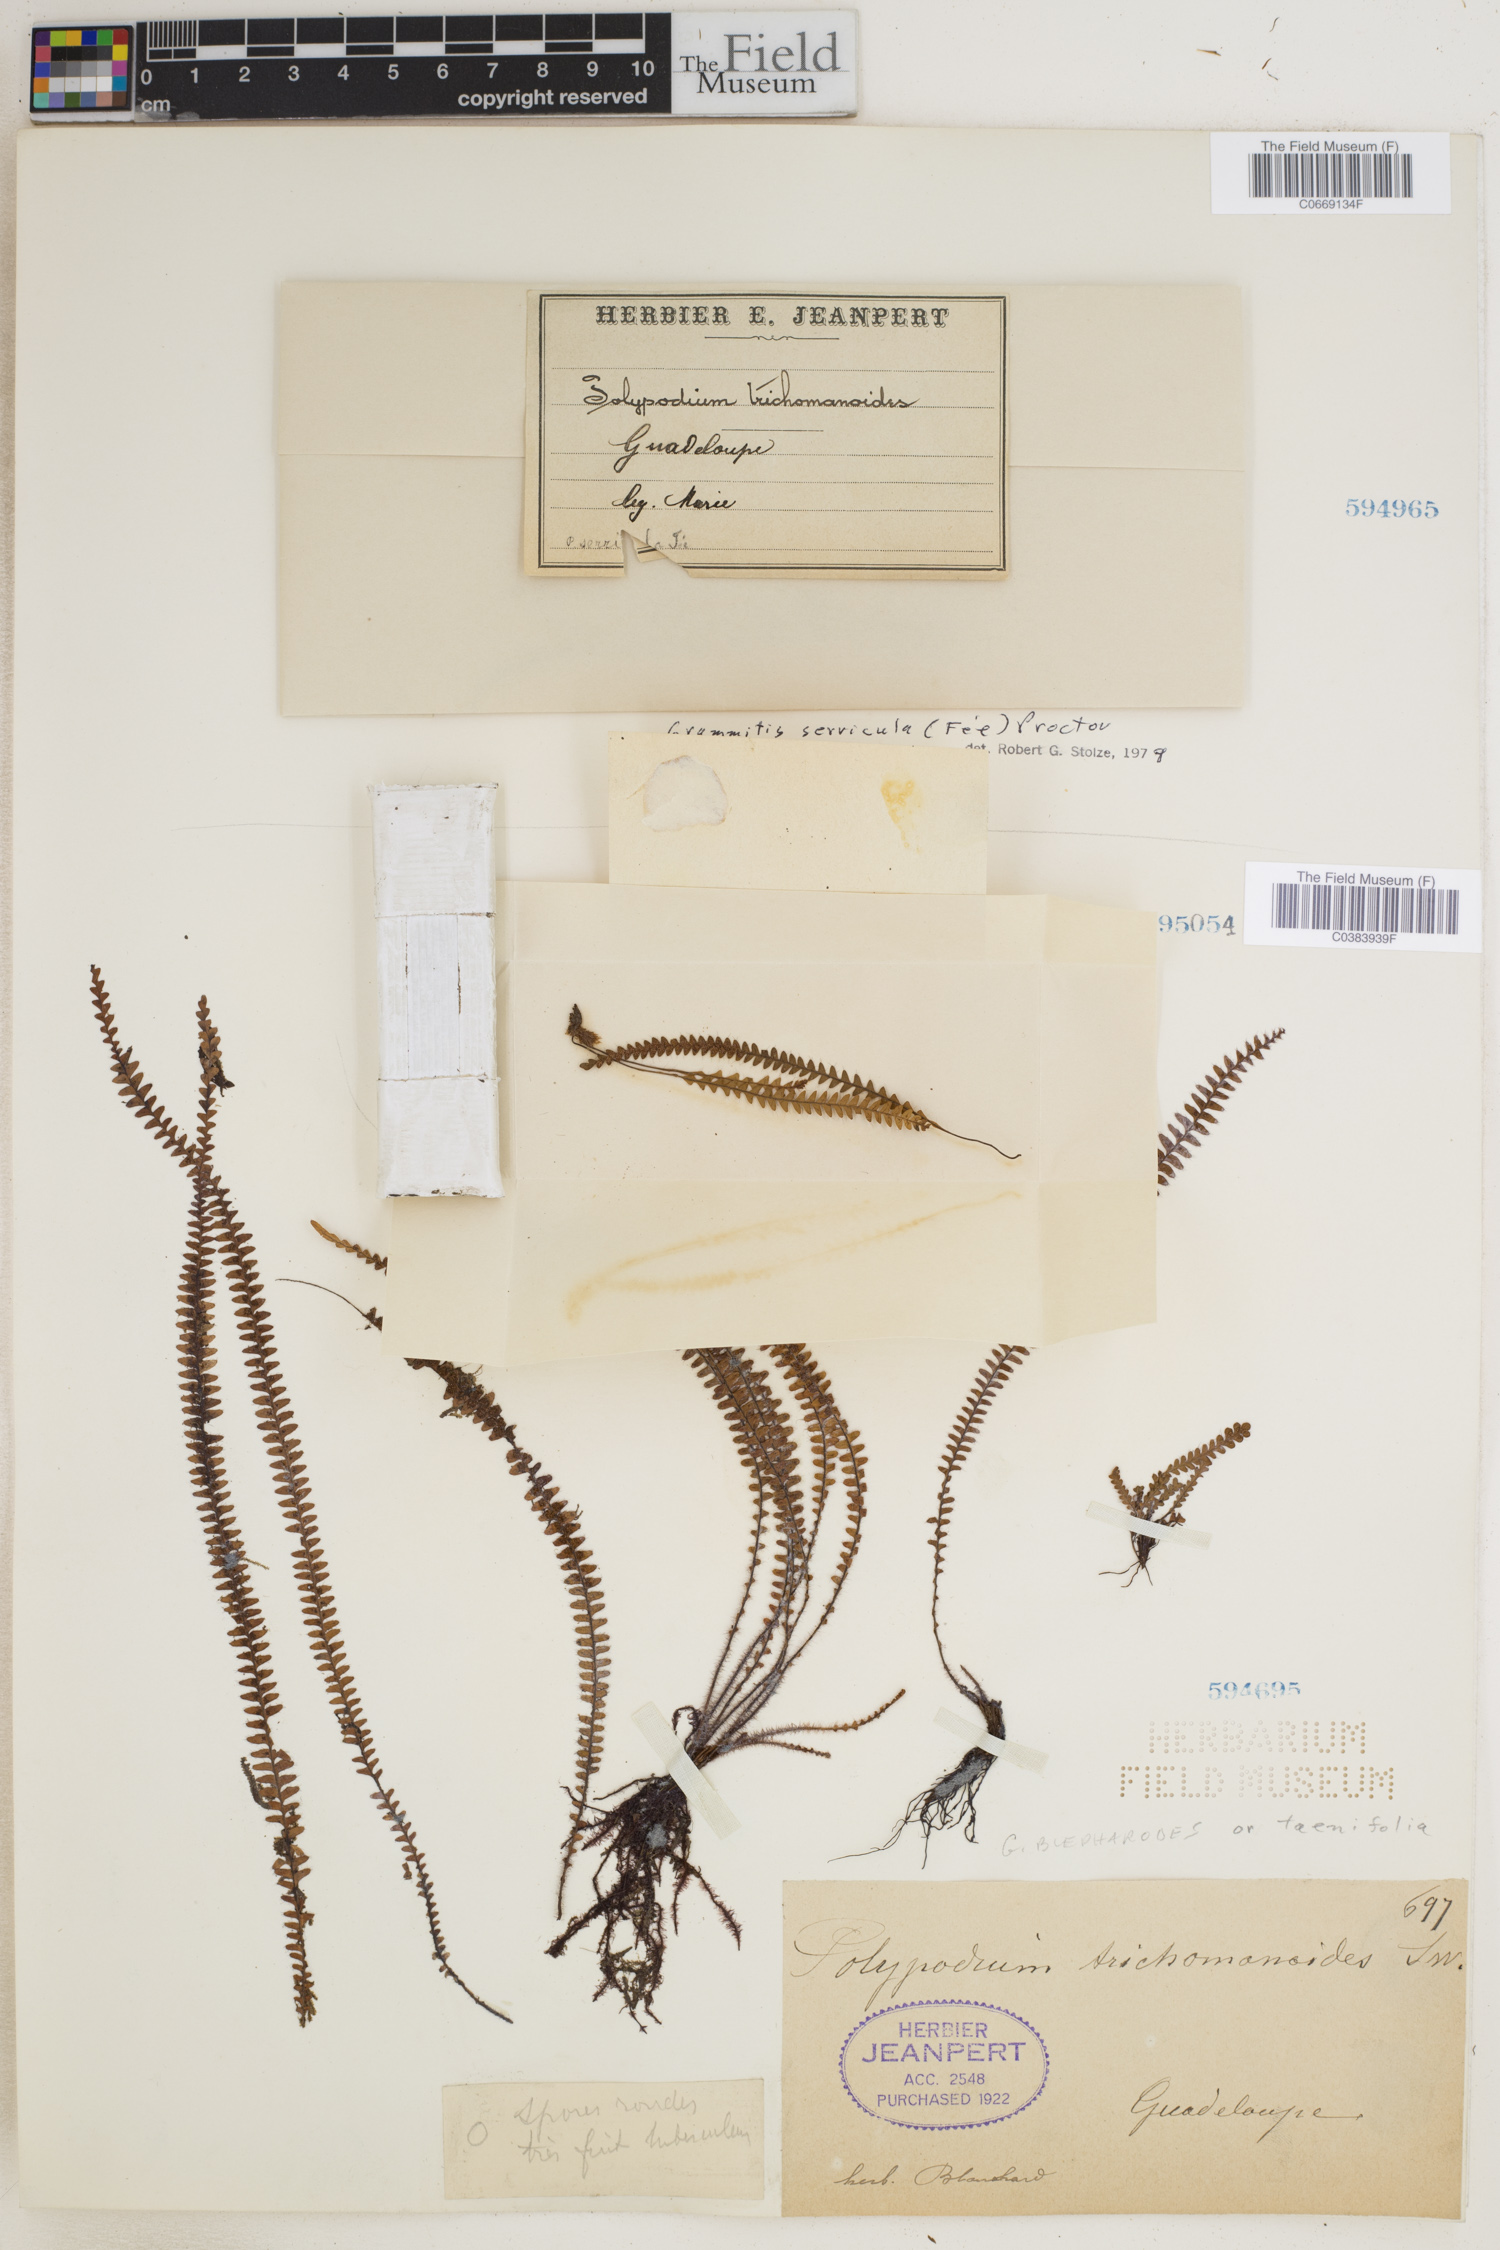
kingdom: Plantae
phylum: Tracheophyta
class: Polypodiopsida
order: Polypodiales
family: Polypodiaceae
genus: Moranopteris
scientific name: Moranopteris trichomanoides
